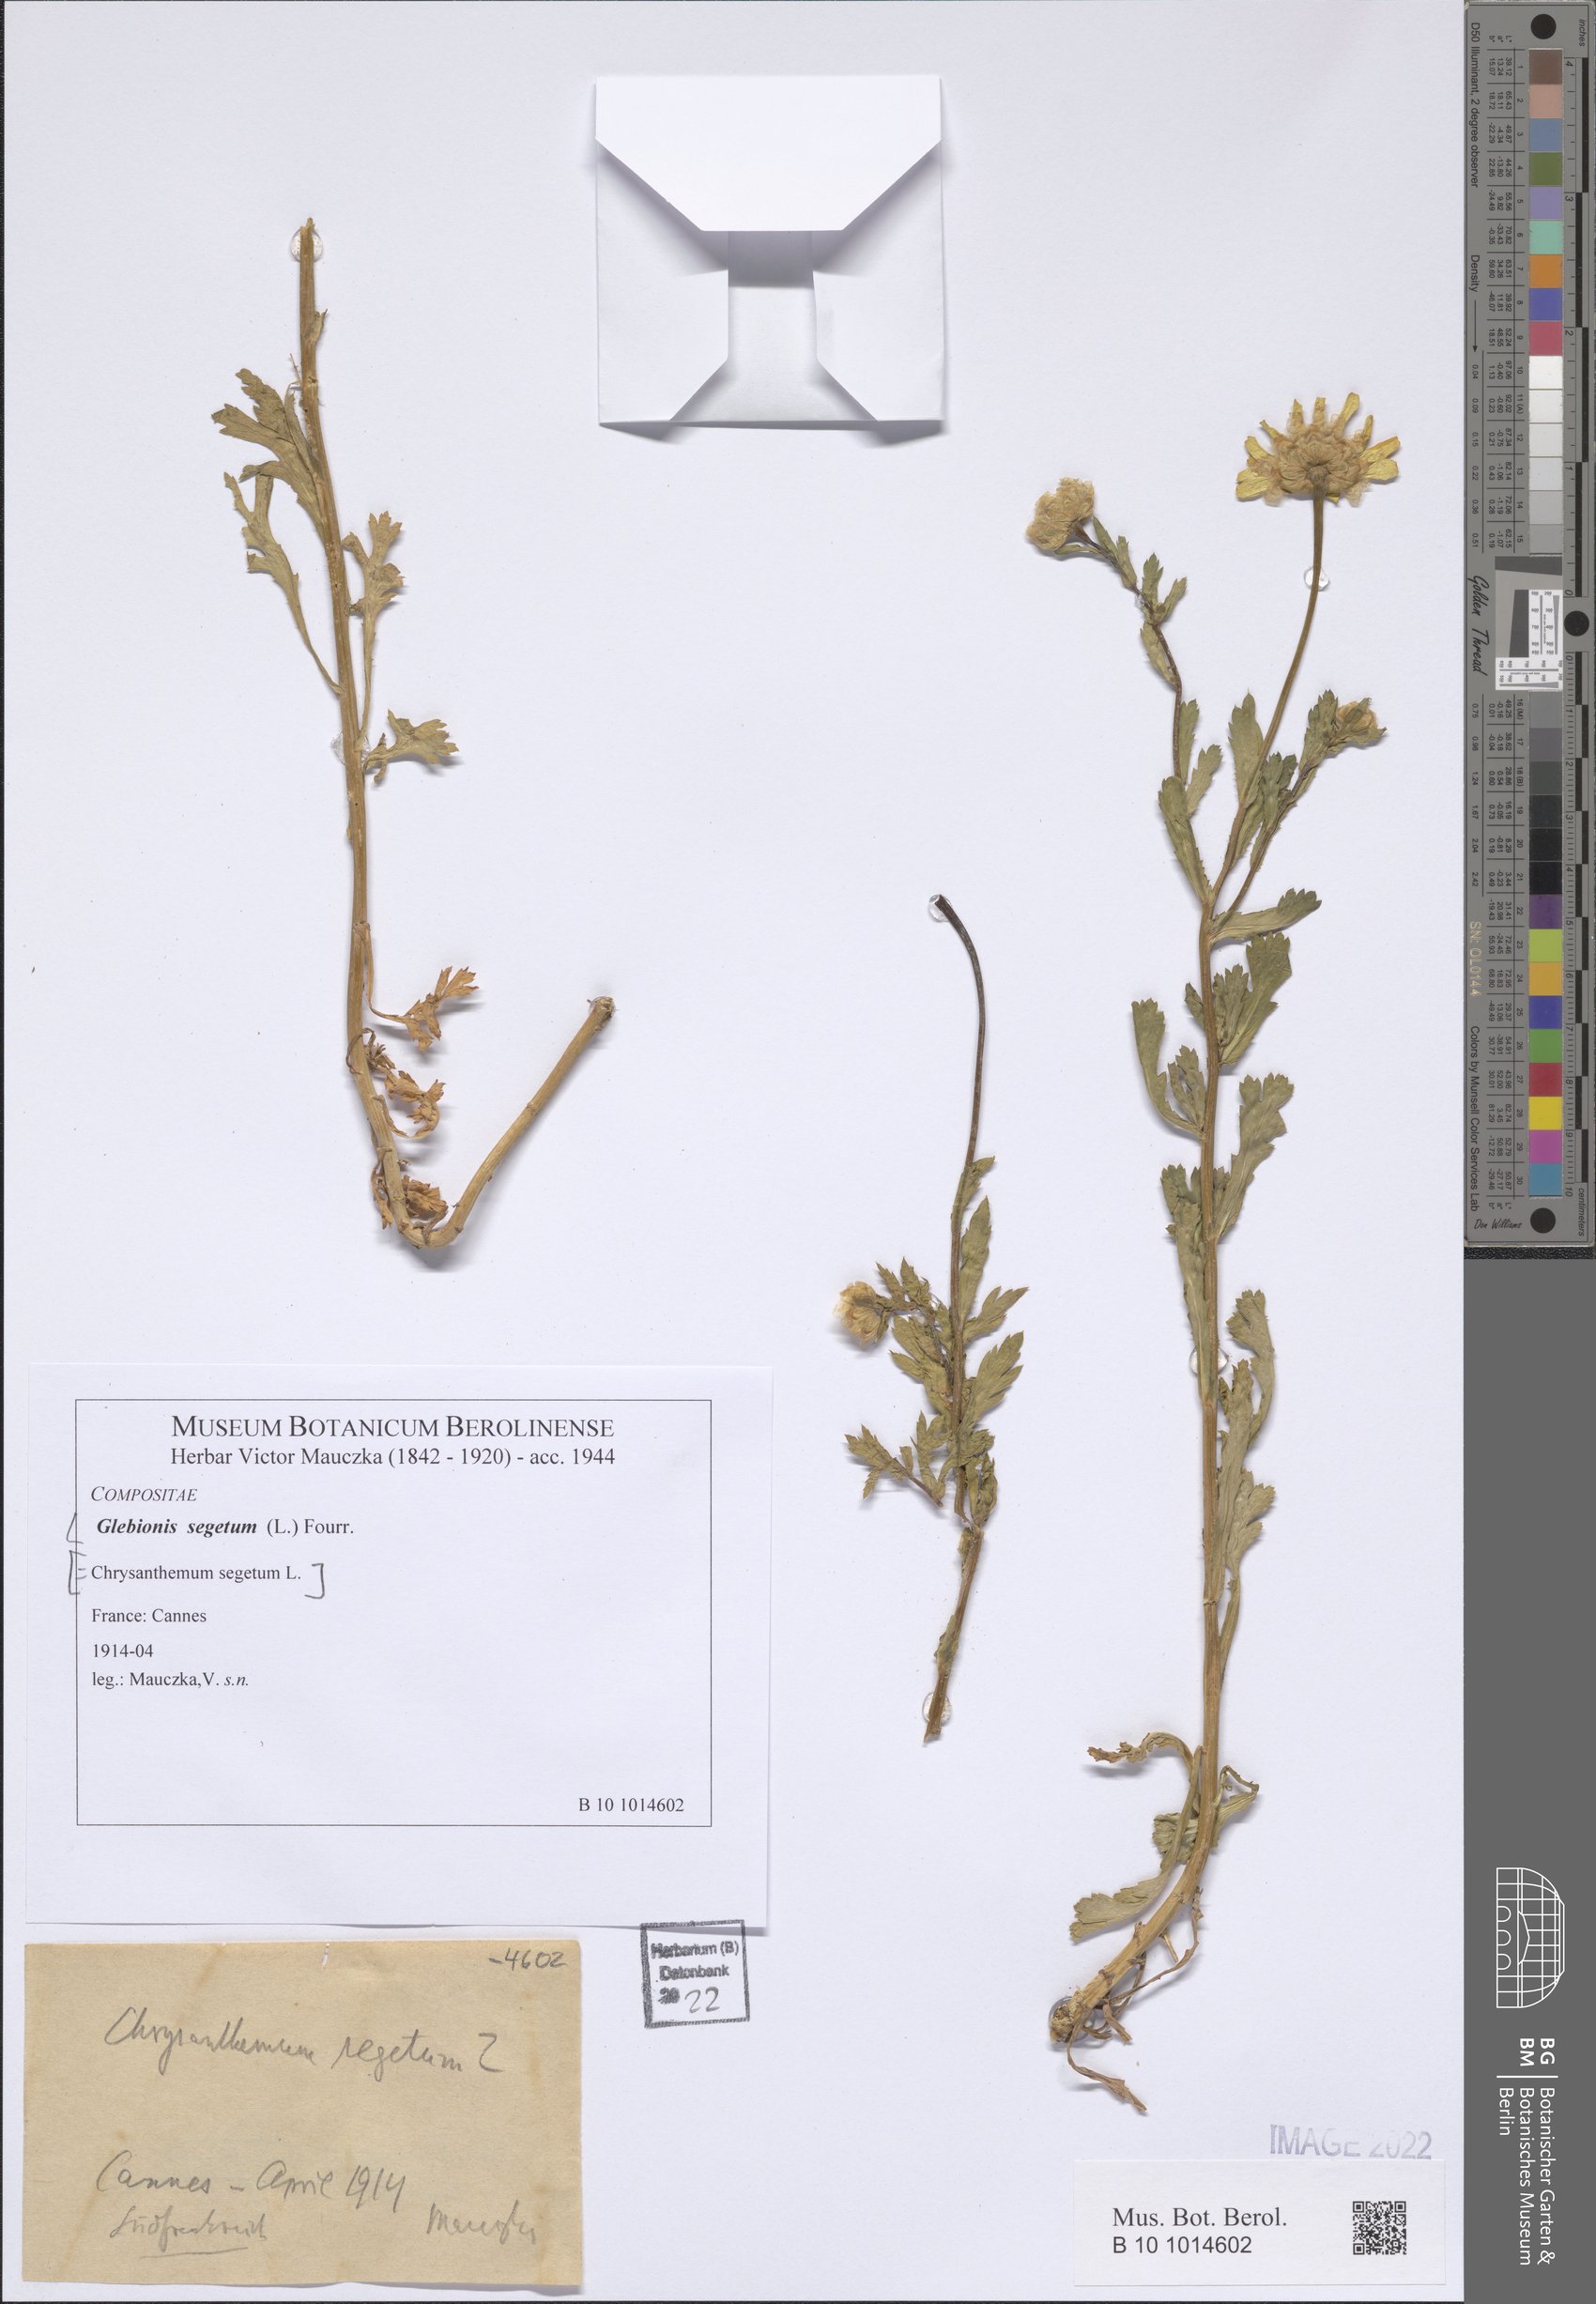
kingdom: Plantae
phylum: Tracheophyta
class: Magnoliopsida
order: Asterales
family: Asteraceae
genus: Glebionis
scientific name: Glebionis segetum
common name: Corndaisy
